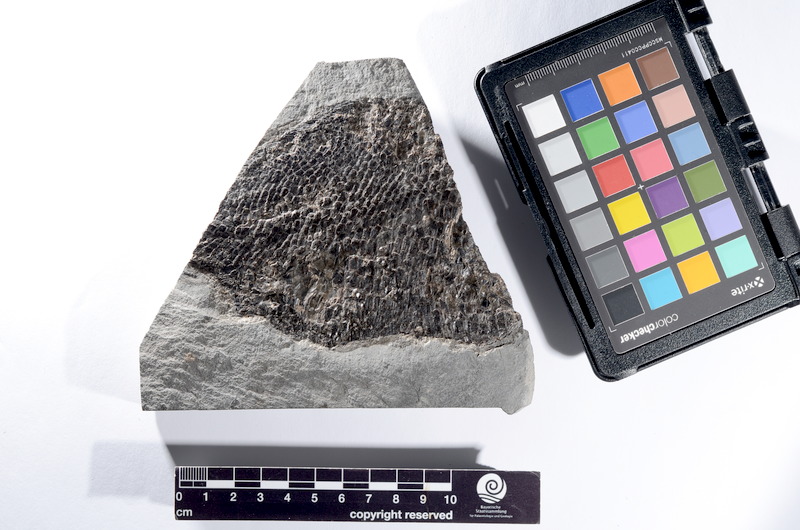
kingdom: Animalia
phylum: Chordata
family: Dapediidae
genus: Dapedium
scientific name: Dapedium
